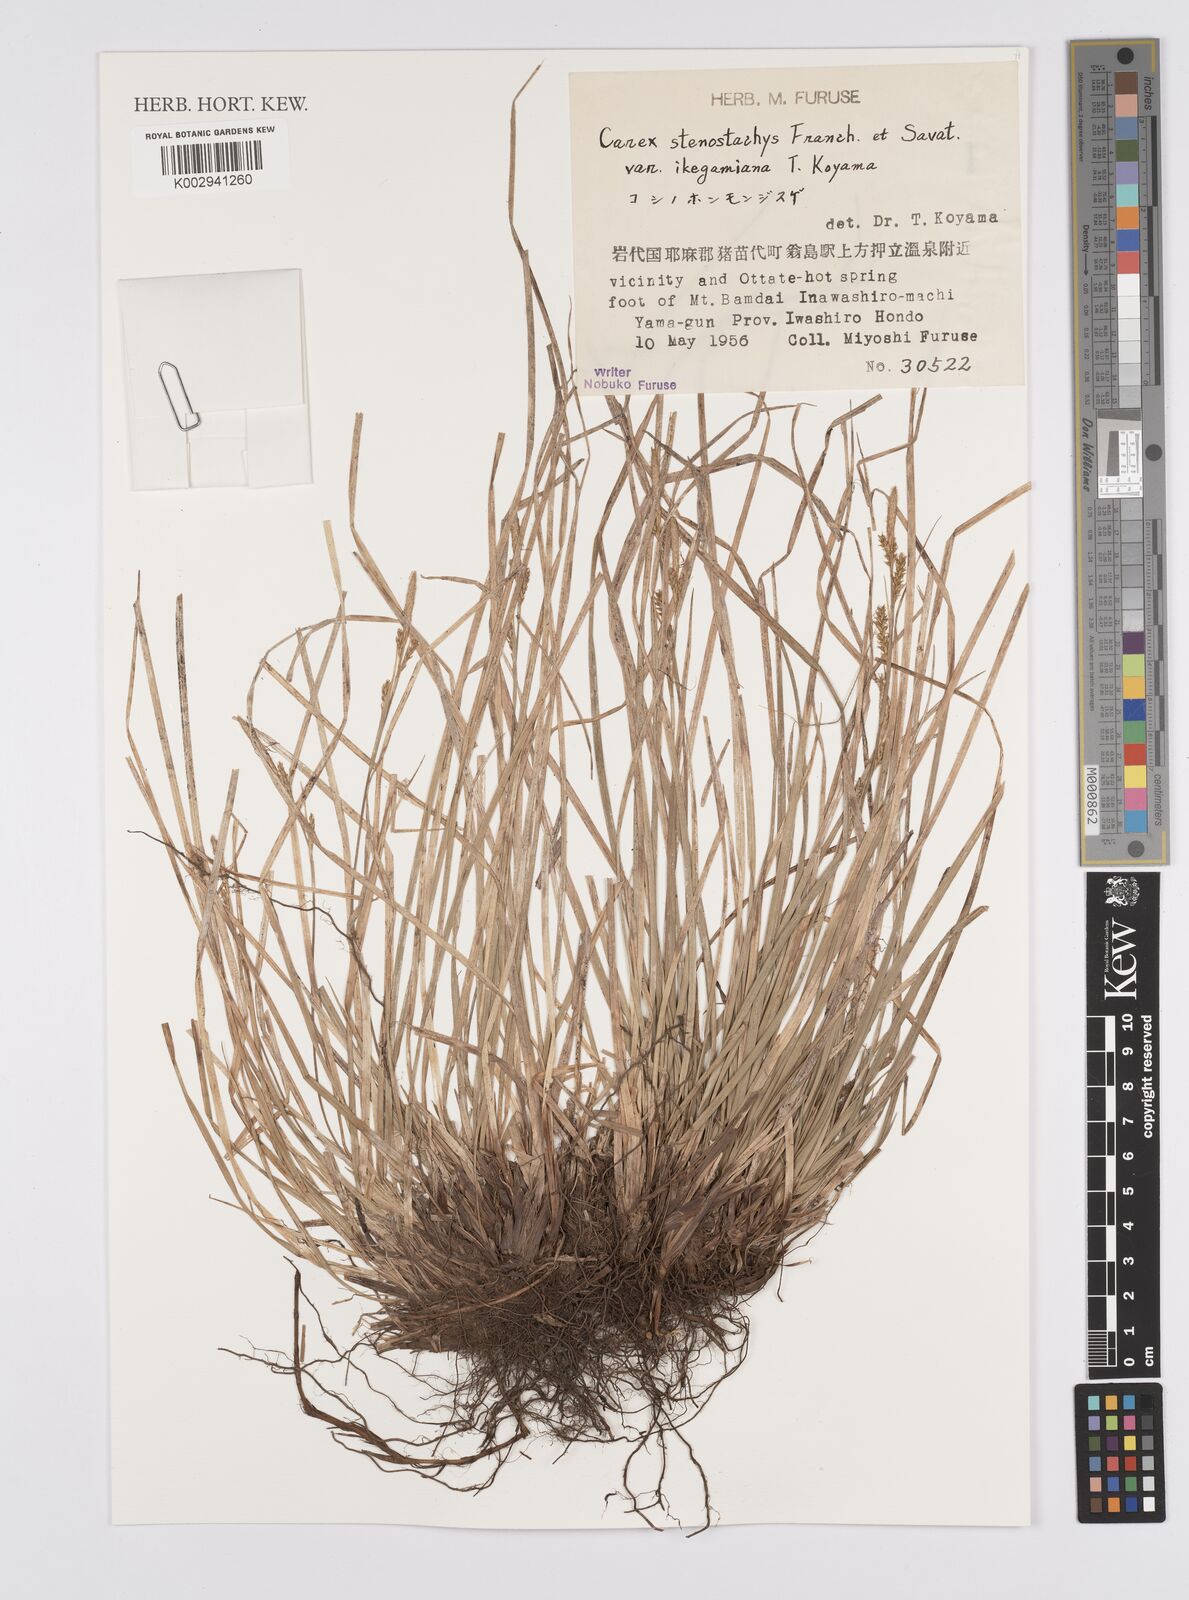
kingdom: Plantae
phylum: Tracheophyta
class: Liliopsida
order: Poales
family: Cyperaceae
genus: Carex
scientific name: Carex pisiformis
